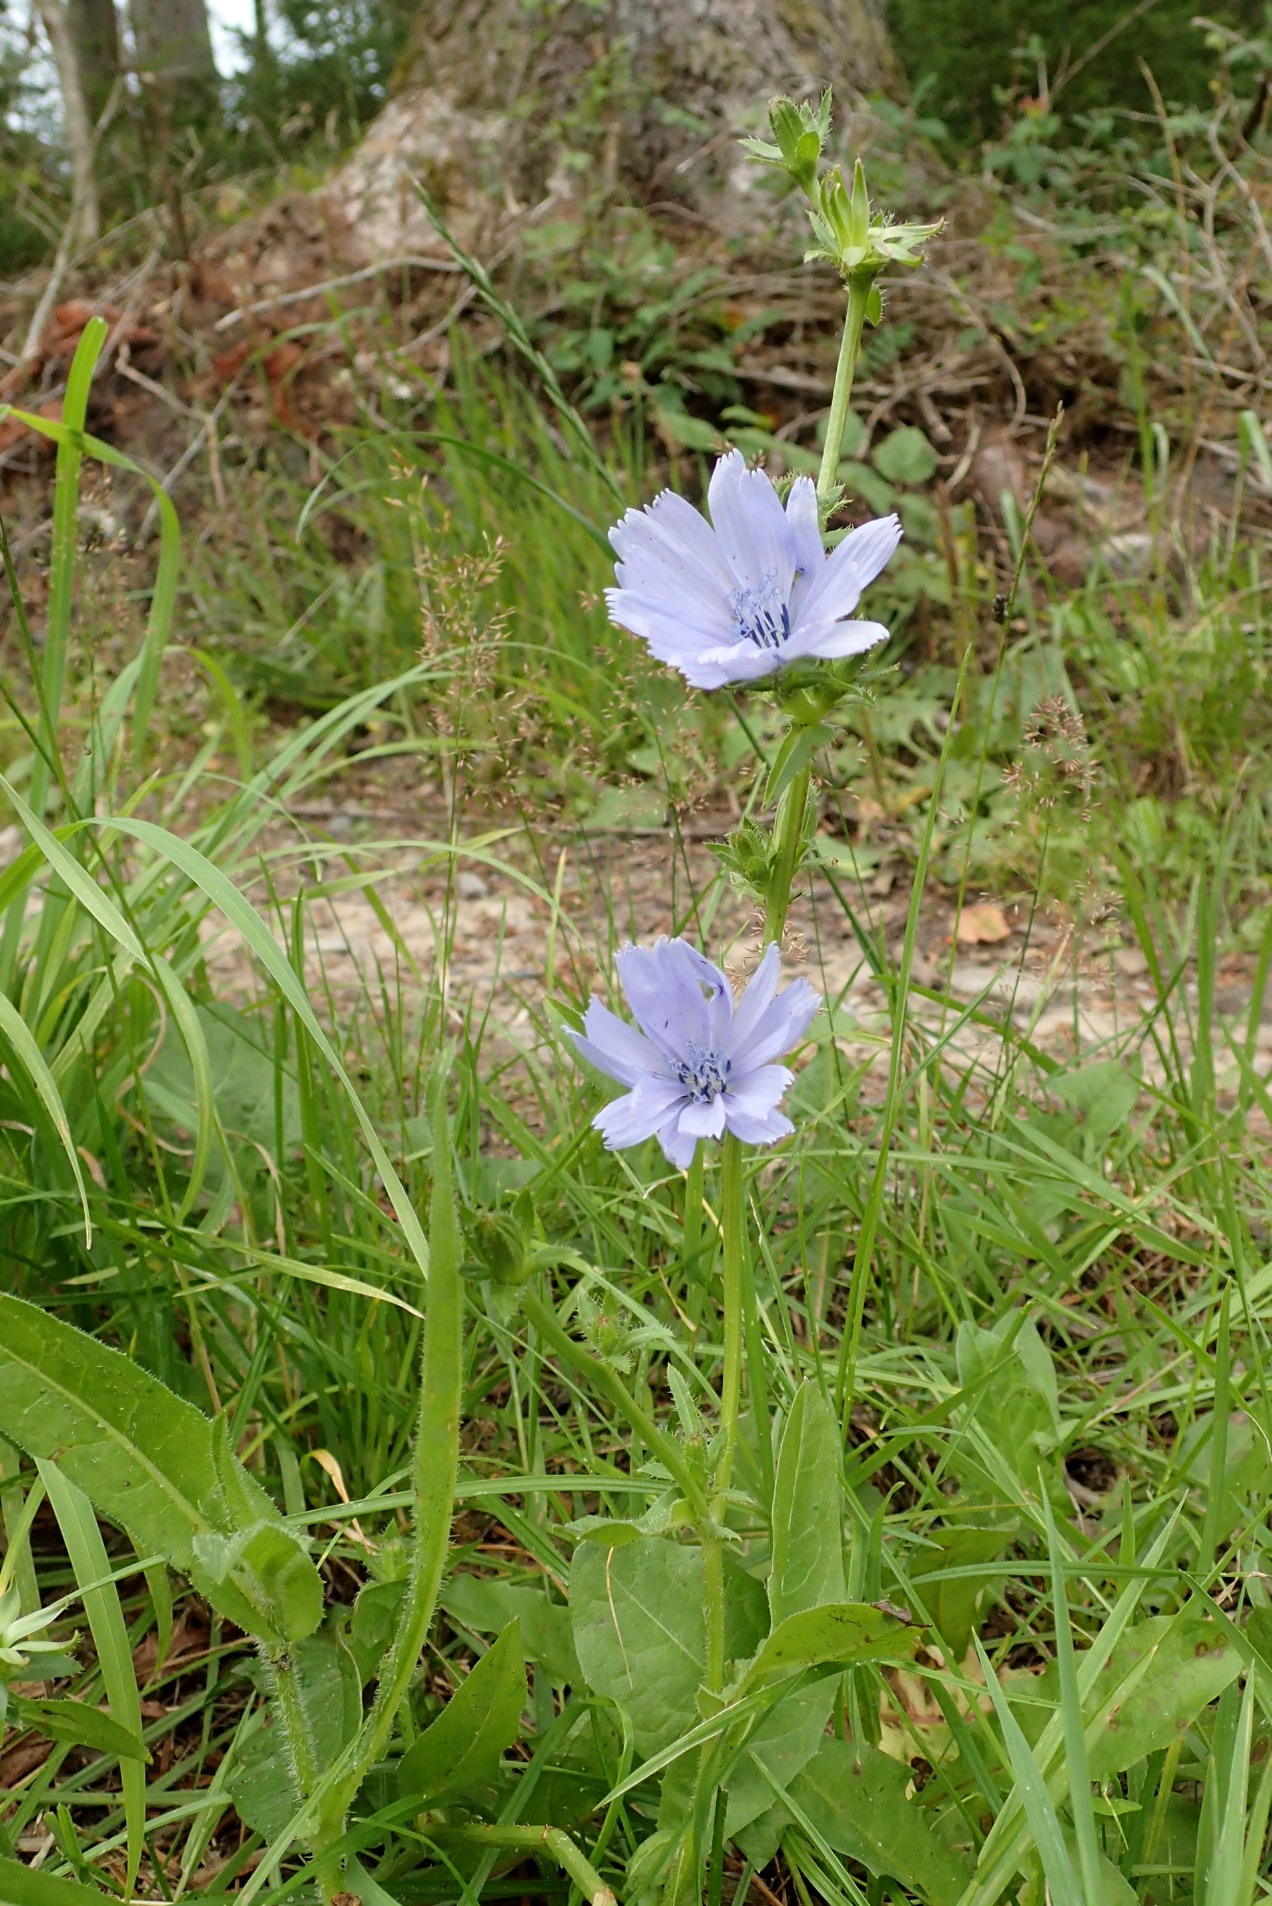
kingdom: Plantae
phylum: Tracheophyta
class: Magnoliopsida
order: Asterales
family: Asteraceae
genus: Cichorium
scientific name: Cichorium intybus
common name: Cikorie
